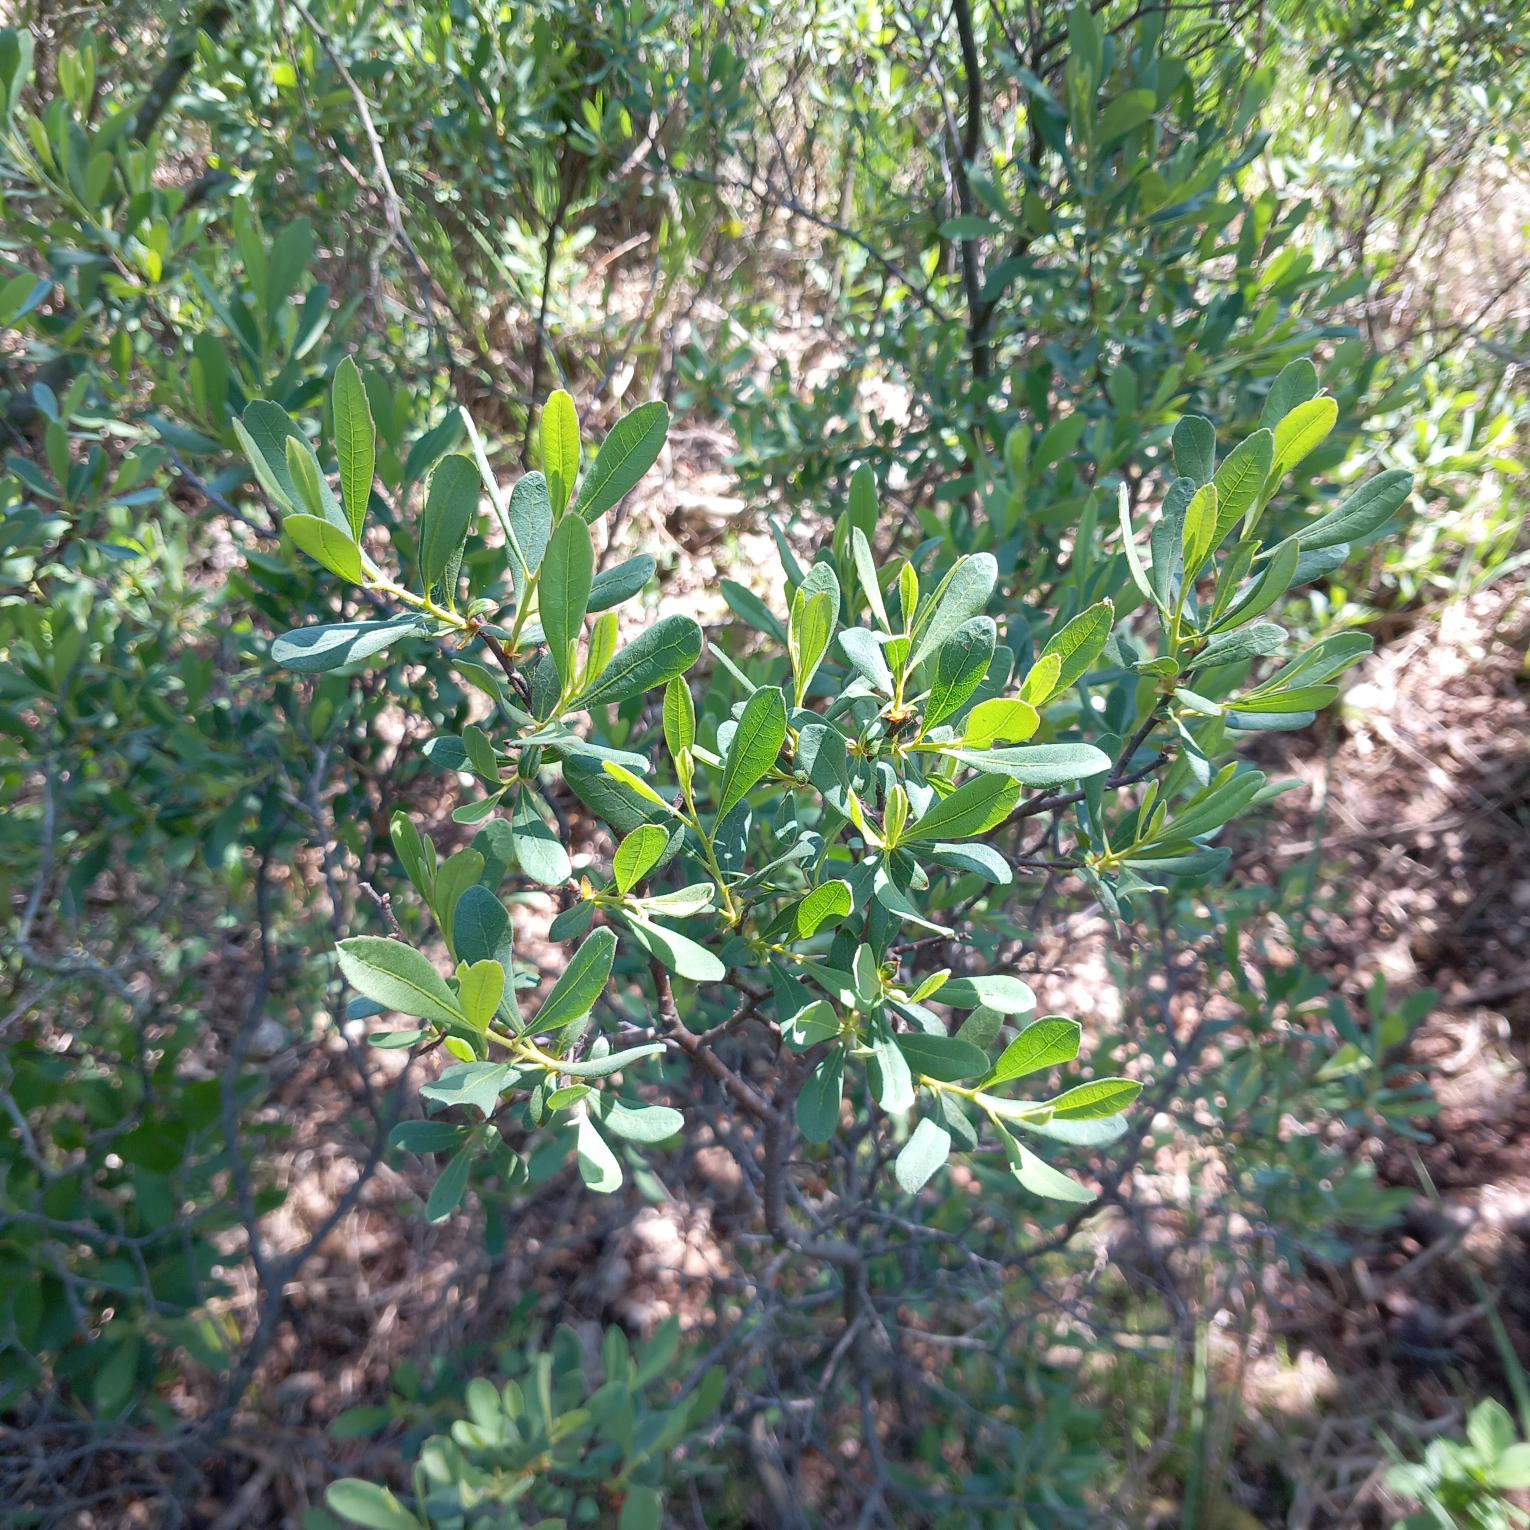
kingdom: Plantae
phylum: Tracheophyta
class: Magnoliopsida
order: Fagales
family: Myricaceae
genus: Myrica
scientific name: Myrica gale
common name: Pors
